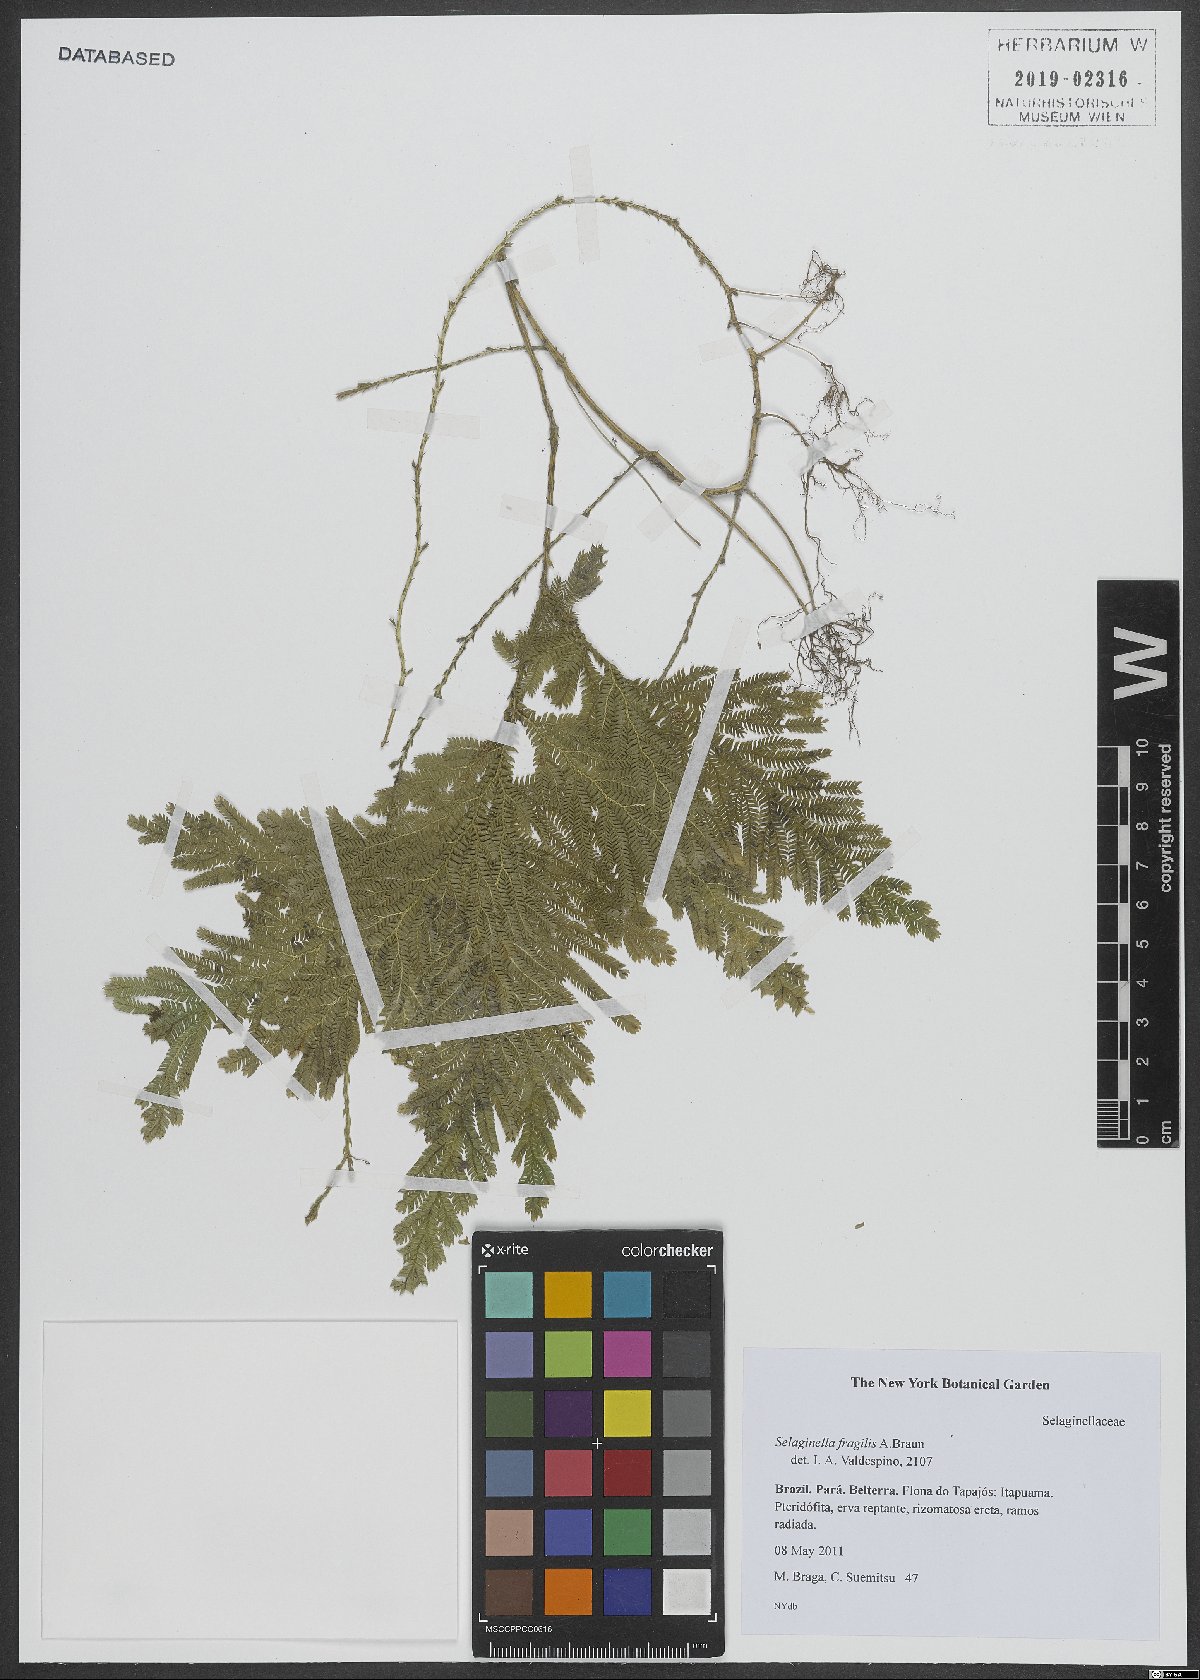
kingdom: Plantae
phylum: Tracheophyta
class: Lycopodiopsida
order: Selaginellales
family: Selaginellaceae
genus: Selaginella
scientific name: Selaginella fragilis
